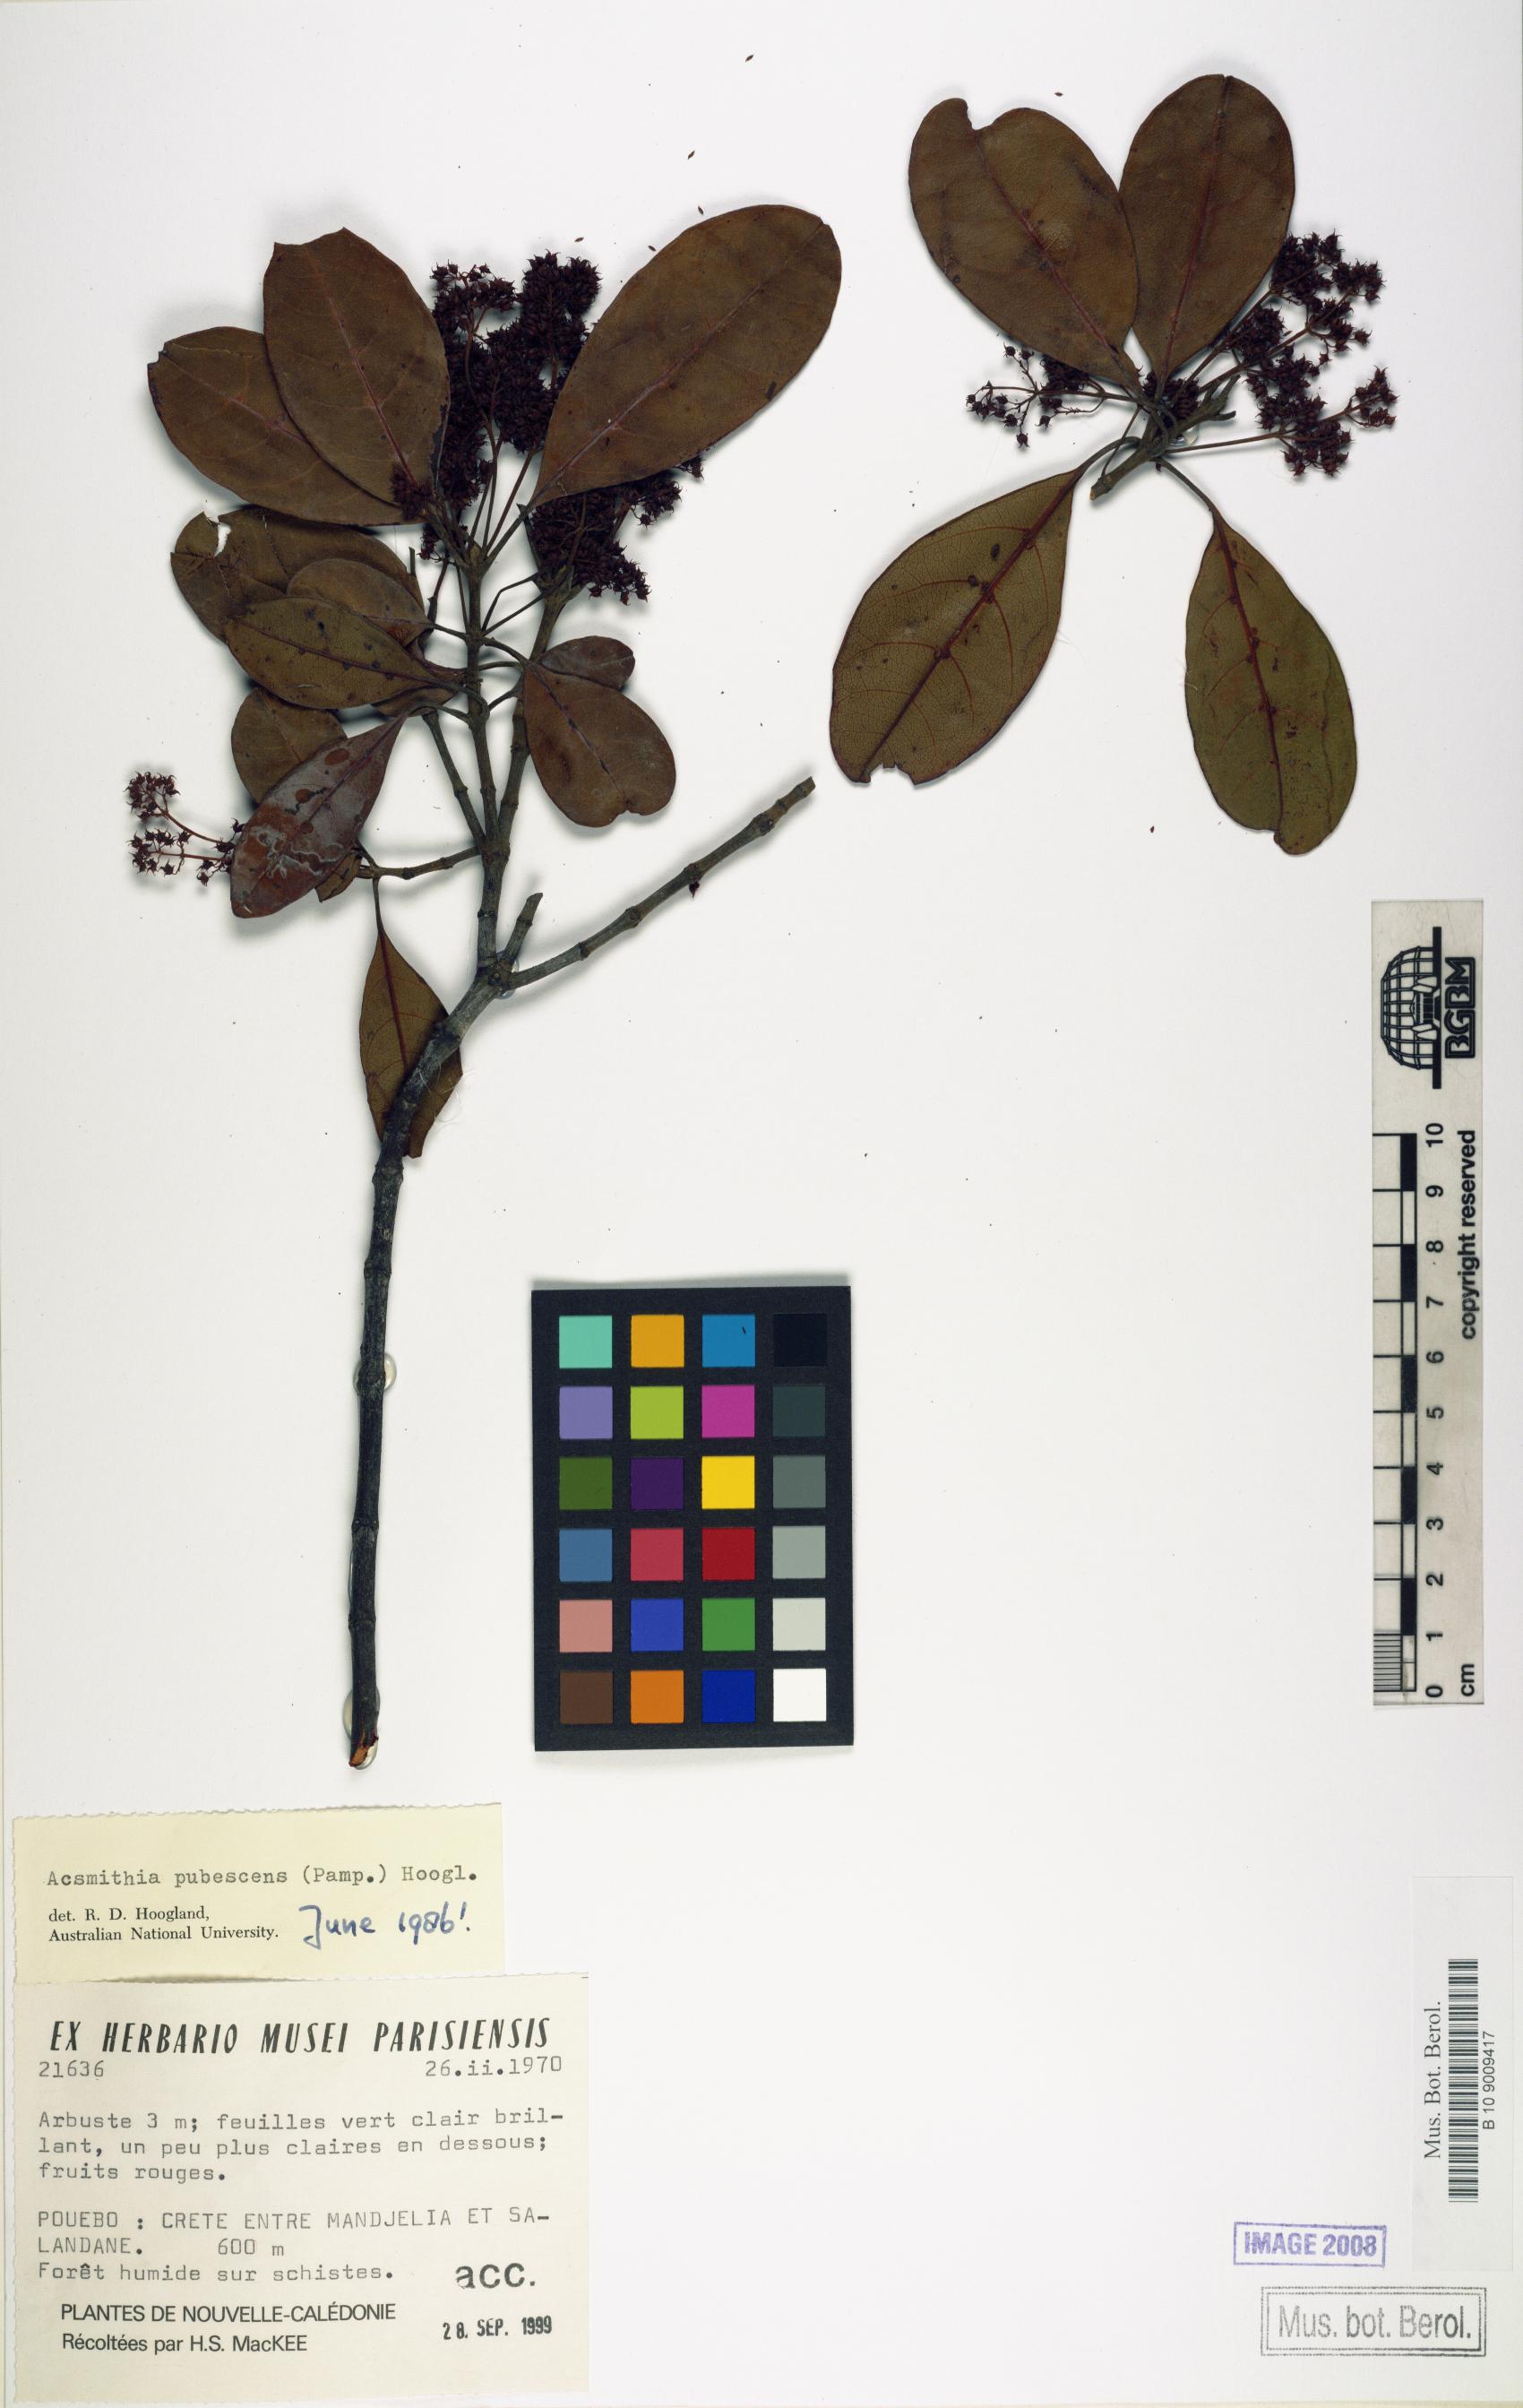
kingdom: Plantae
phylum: Tracheophyta
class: Magnoliopsida
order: Oxalidales
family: Cunoniaceae
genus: Spiraeanthemum
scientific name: Spiraeanthemum pubescens
